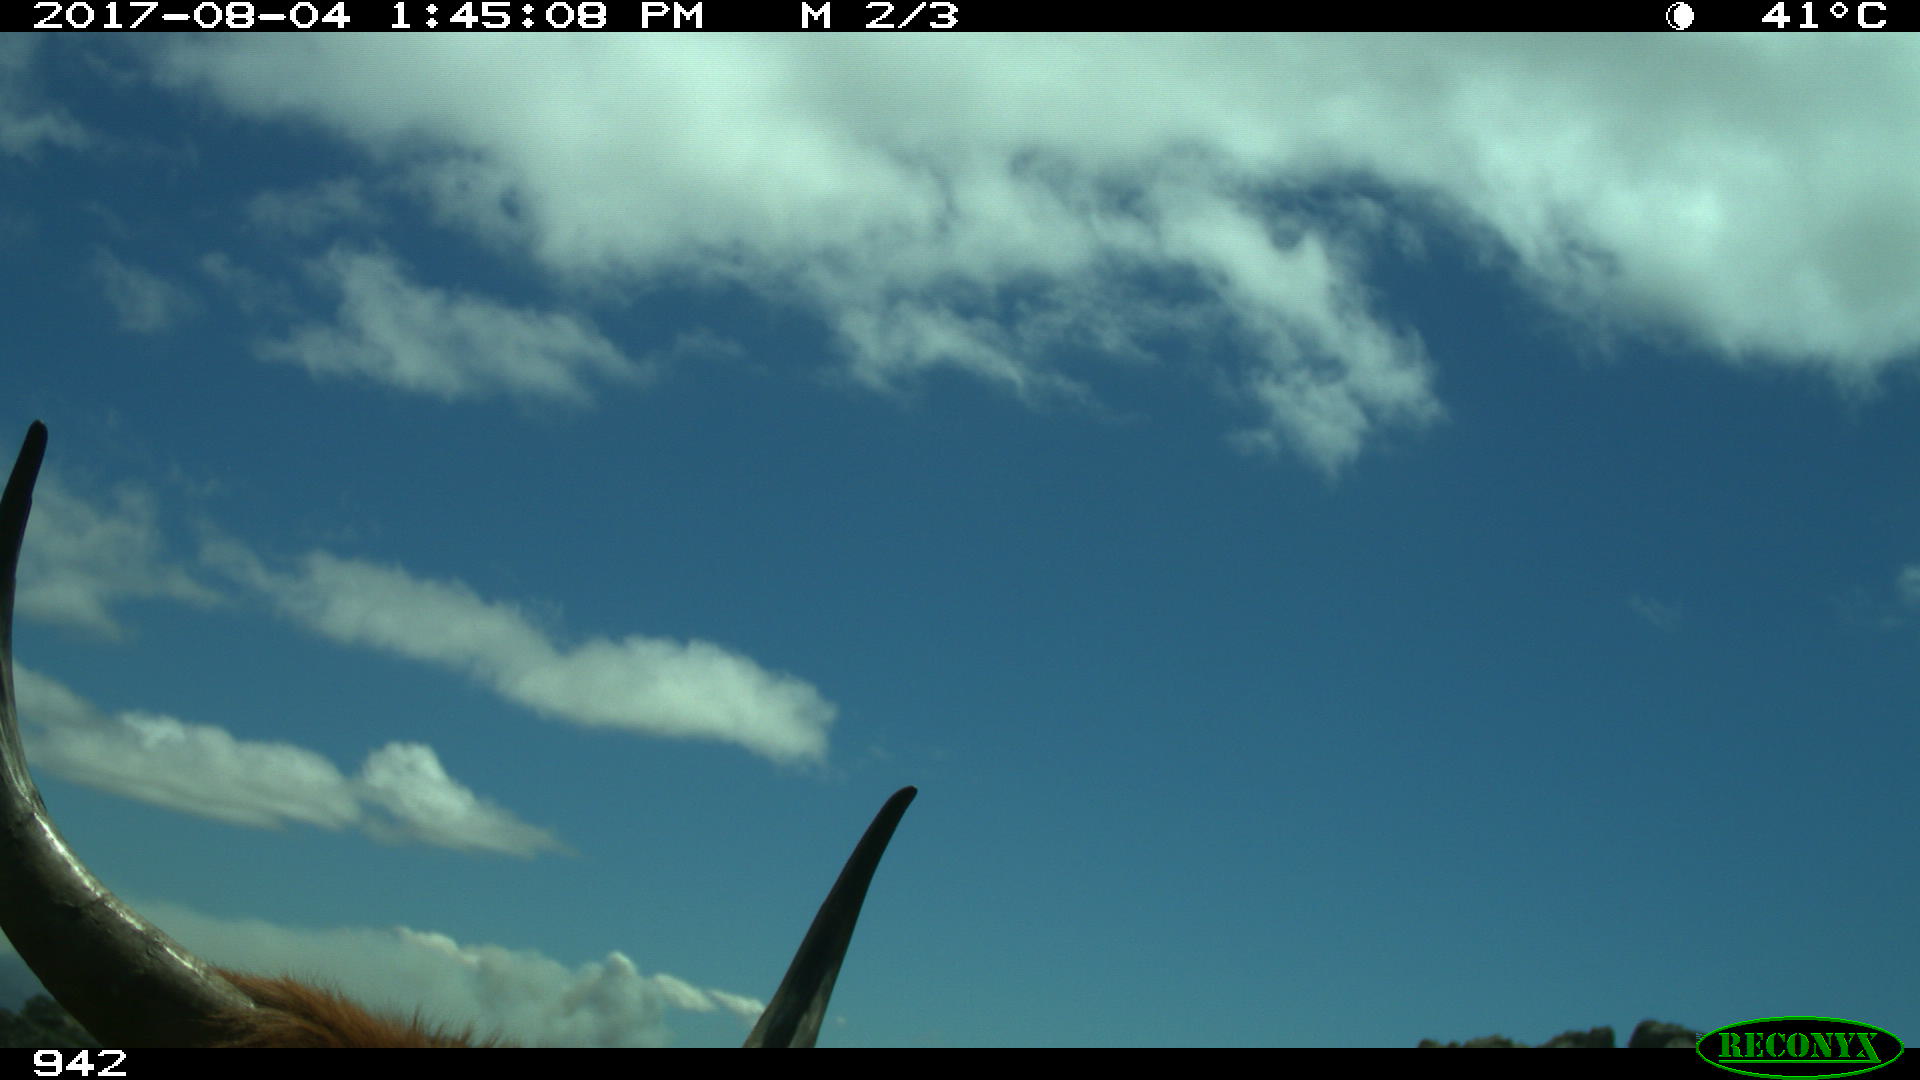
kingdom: Animalia
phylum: Chordata
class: Mammalia
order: Artiodactyla
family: Bovidae
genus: Bos
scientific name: Bos taurus
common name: Domesticated cattle
